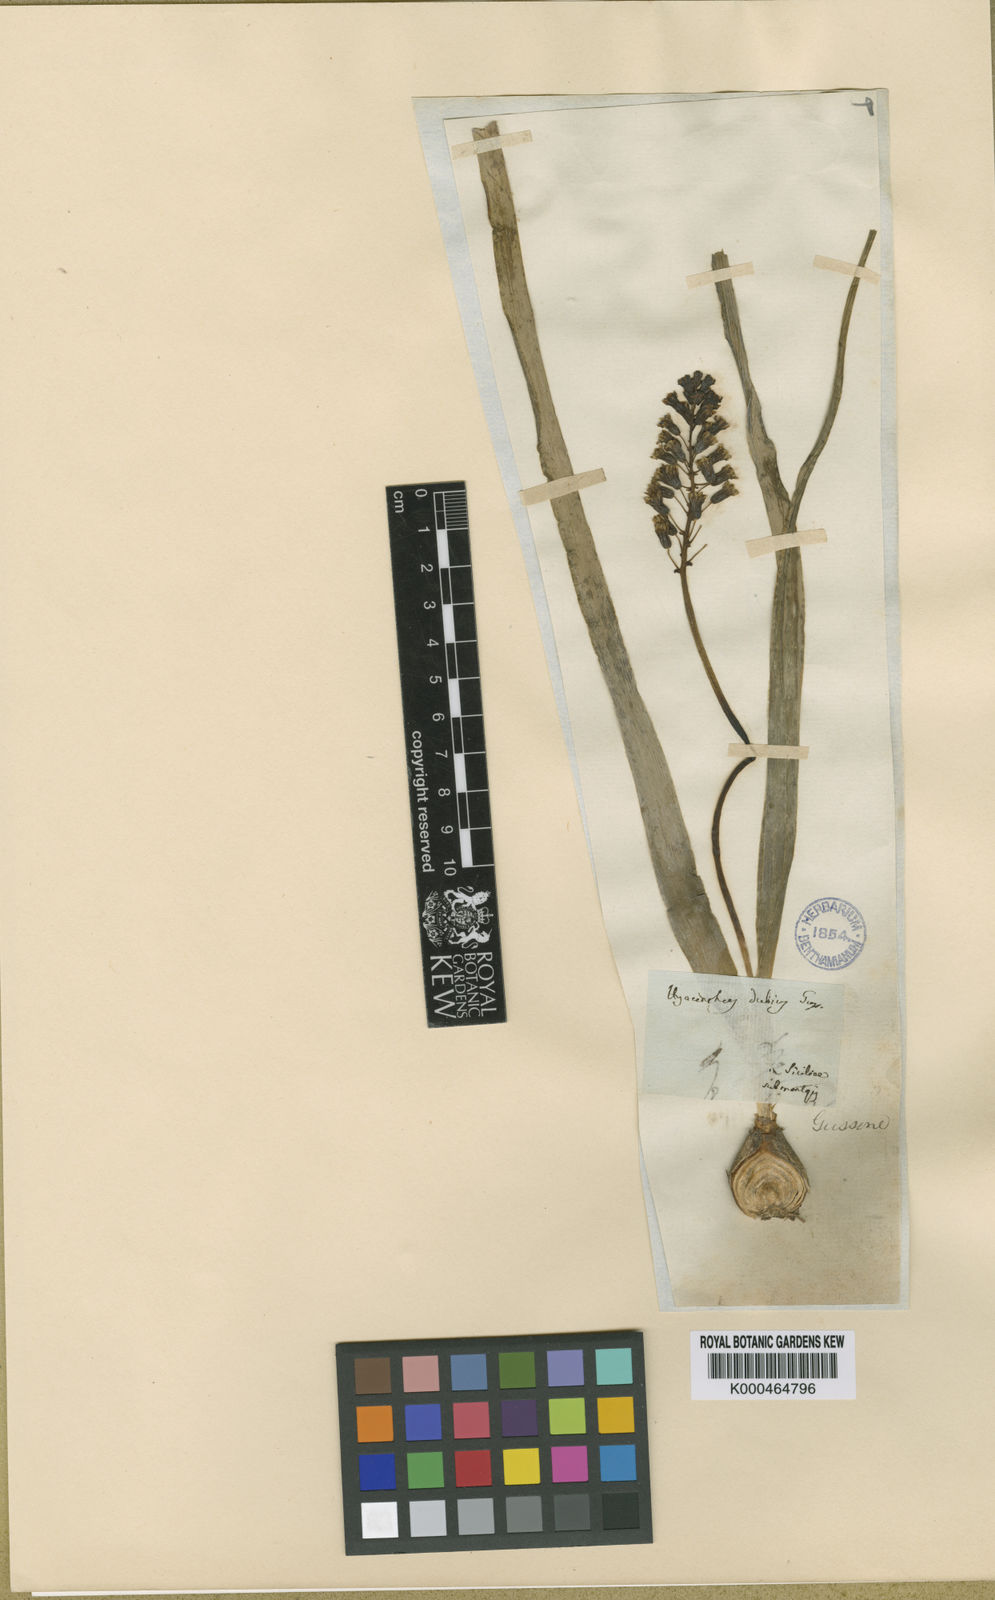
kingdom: Plantae
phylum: Tracheophyta
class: Liliopsida
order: Asparagales
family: Asparagaceae
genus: Bellevalia
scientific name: Bellevalia
